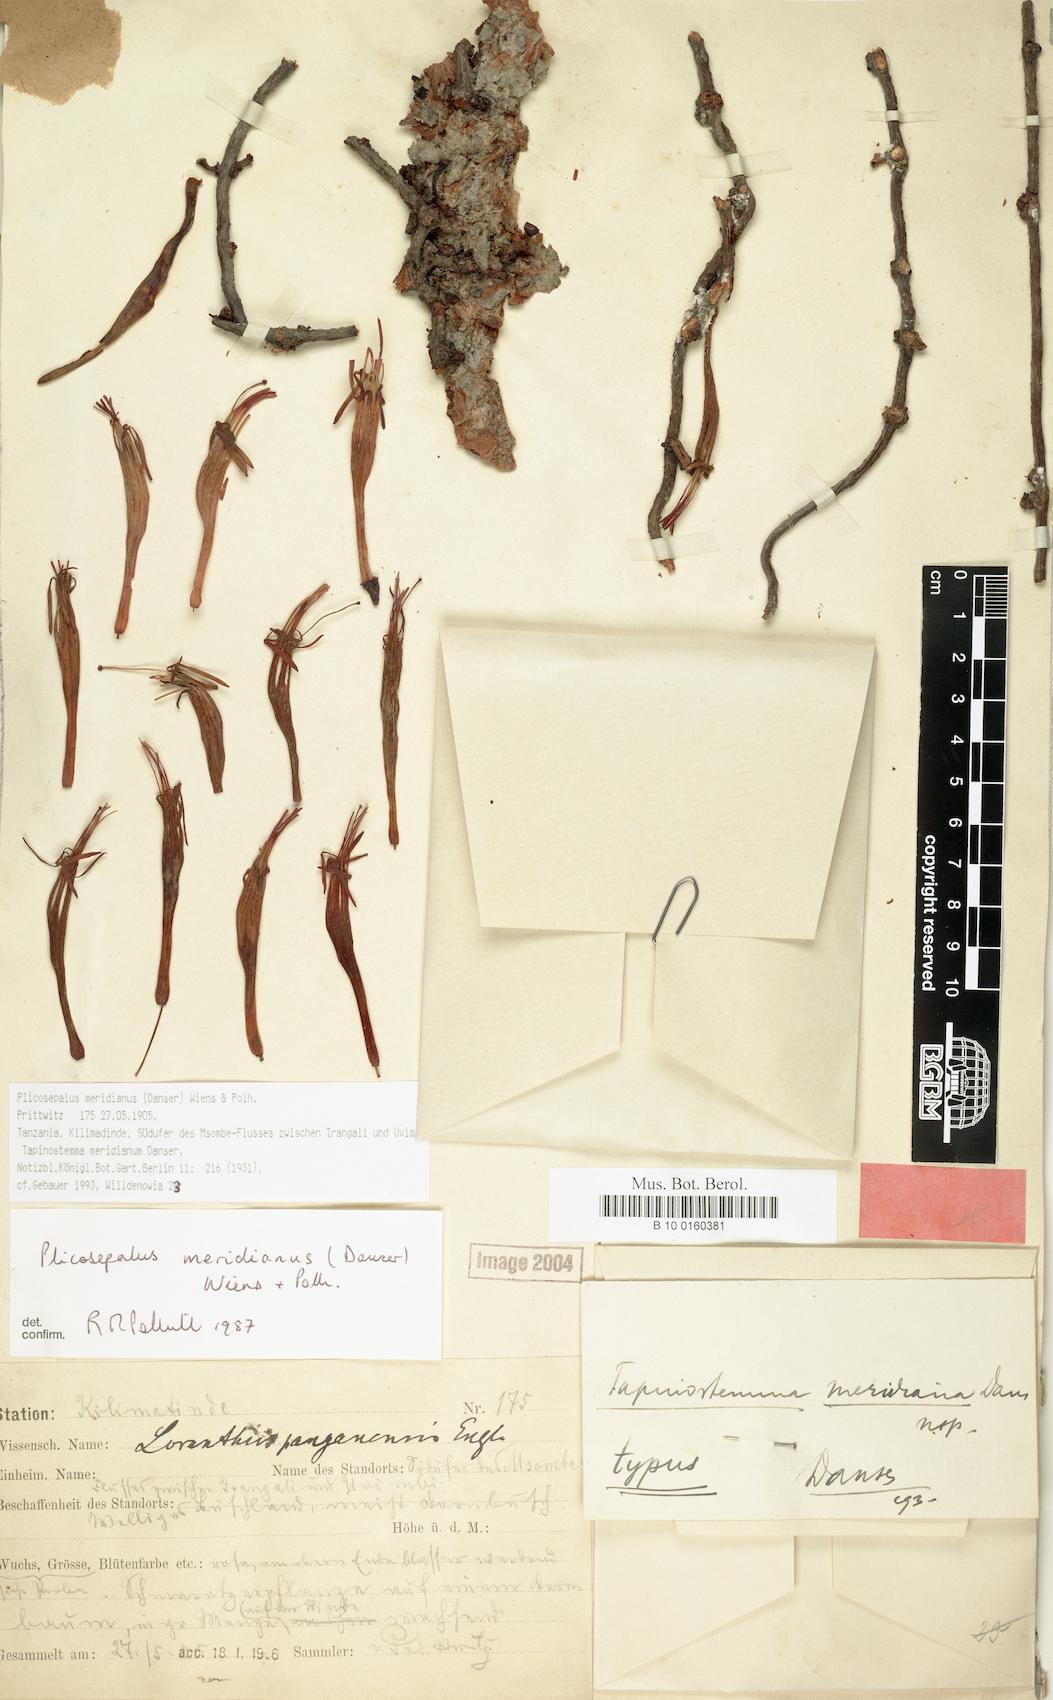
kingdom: Plantae
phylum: Tracheophyta
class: Magnoliopsida
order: Santalales
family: Loranthaceae
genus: Plicosepalus
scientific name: Plicosepalus meridianus
